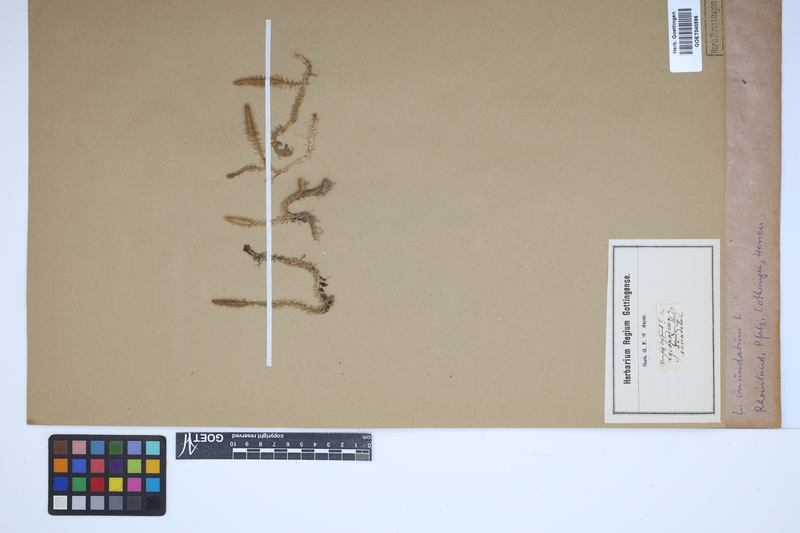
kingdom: Plantae
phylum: Tracheophyta
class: Lycopodiopsida
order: Lycopodiales
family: Lycopodiaceae
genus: Lycopodiella
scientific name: Lycopodiella inundata
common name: Marsh clubmoss
